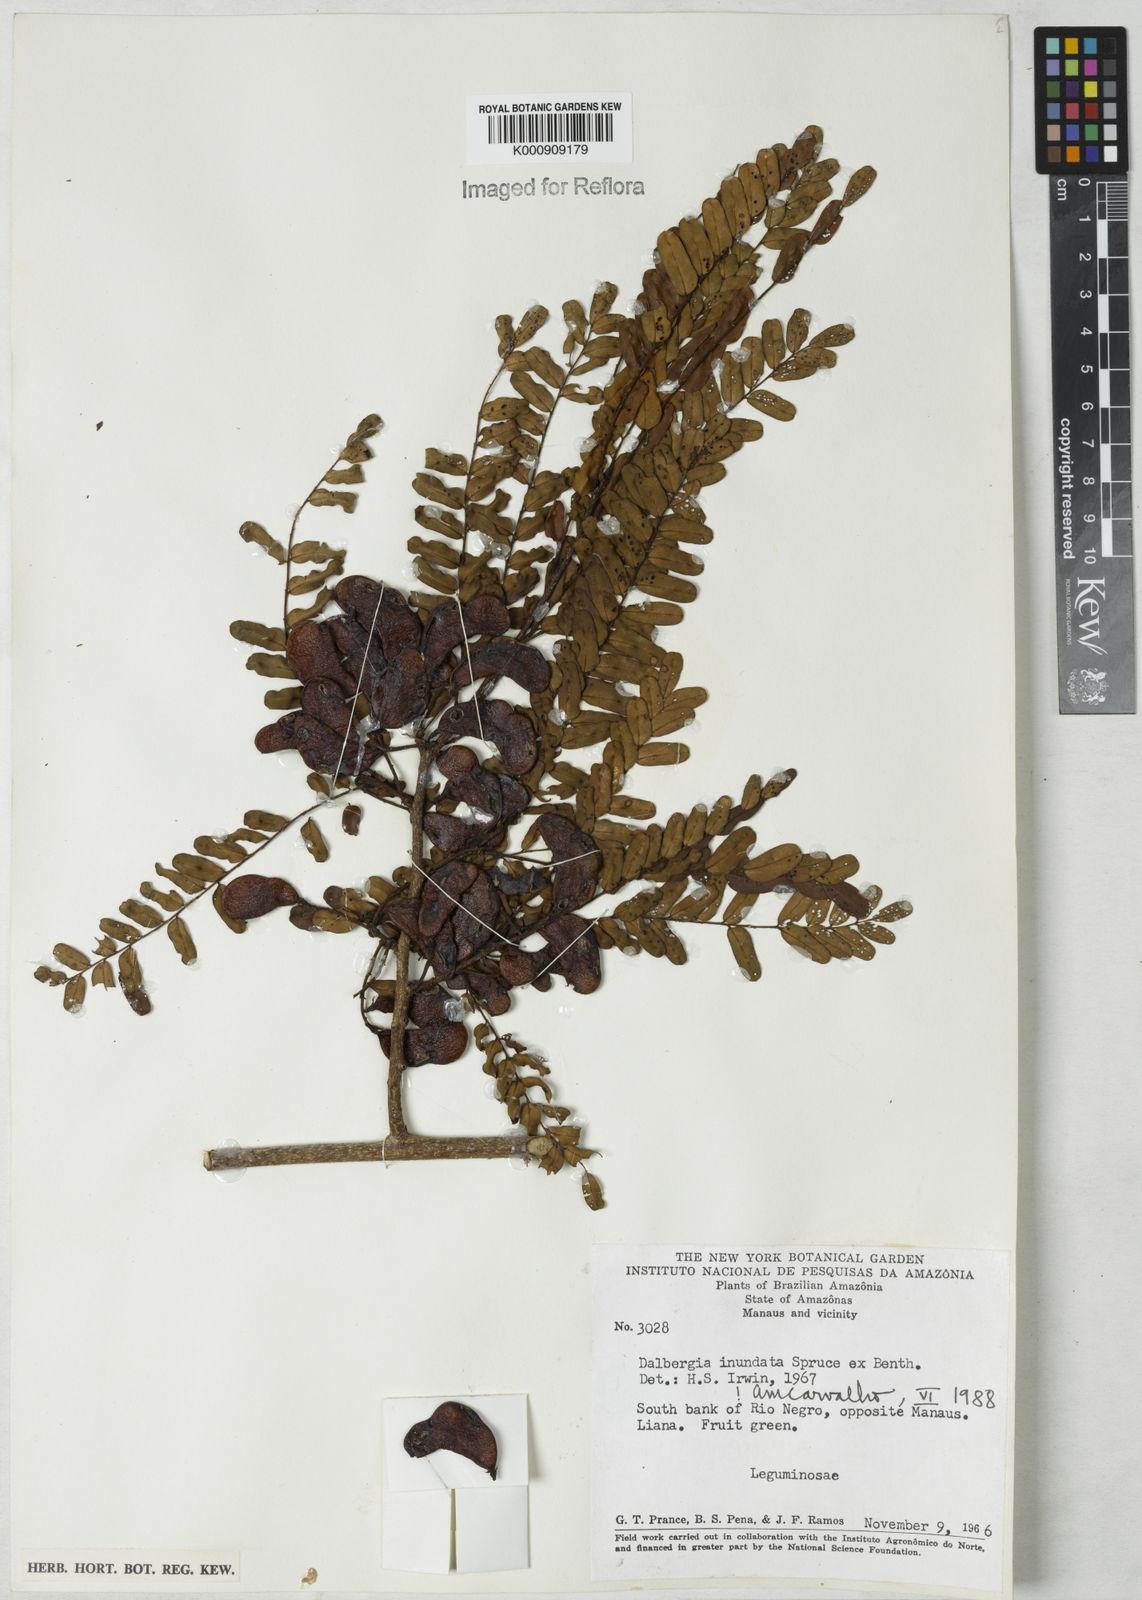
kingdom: Plantae
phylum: Tracheophyta
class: Magnoliopsida
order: Fabales
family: Fabaceae
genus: Dalbergia
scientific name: Dalbergia inundata
